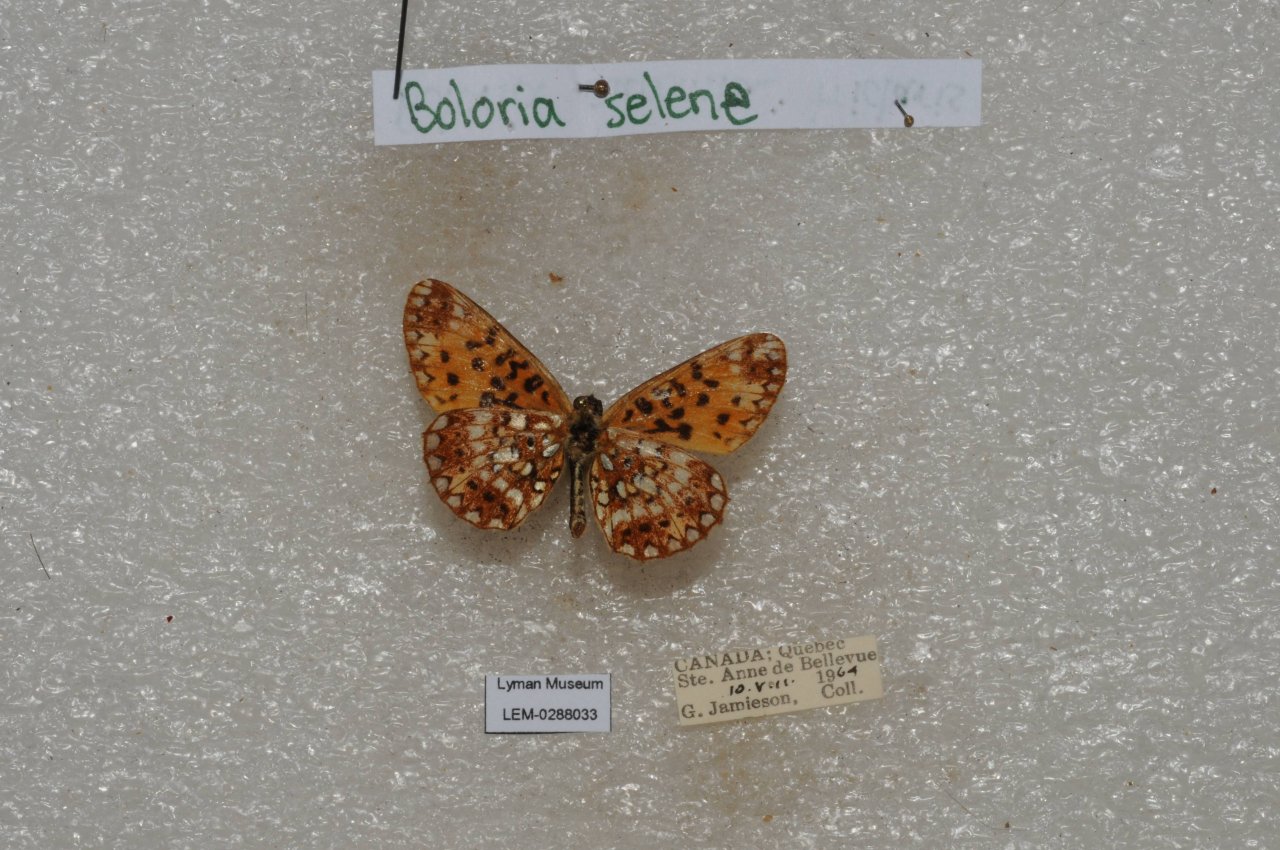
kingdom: Animalia
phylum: Arthropoda
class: Insecta
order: Lepidoptera
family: Nymphalidae
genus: Boloria
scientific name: Boloria selene
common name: Silver-bordered Fritillary
